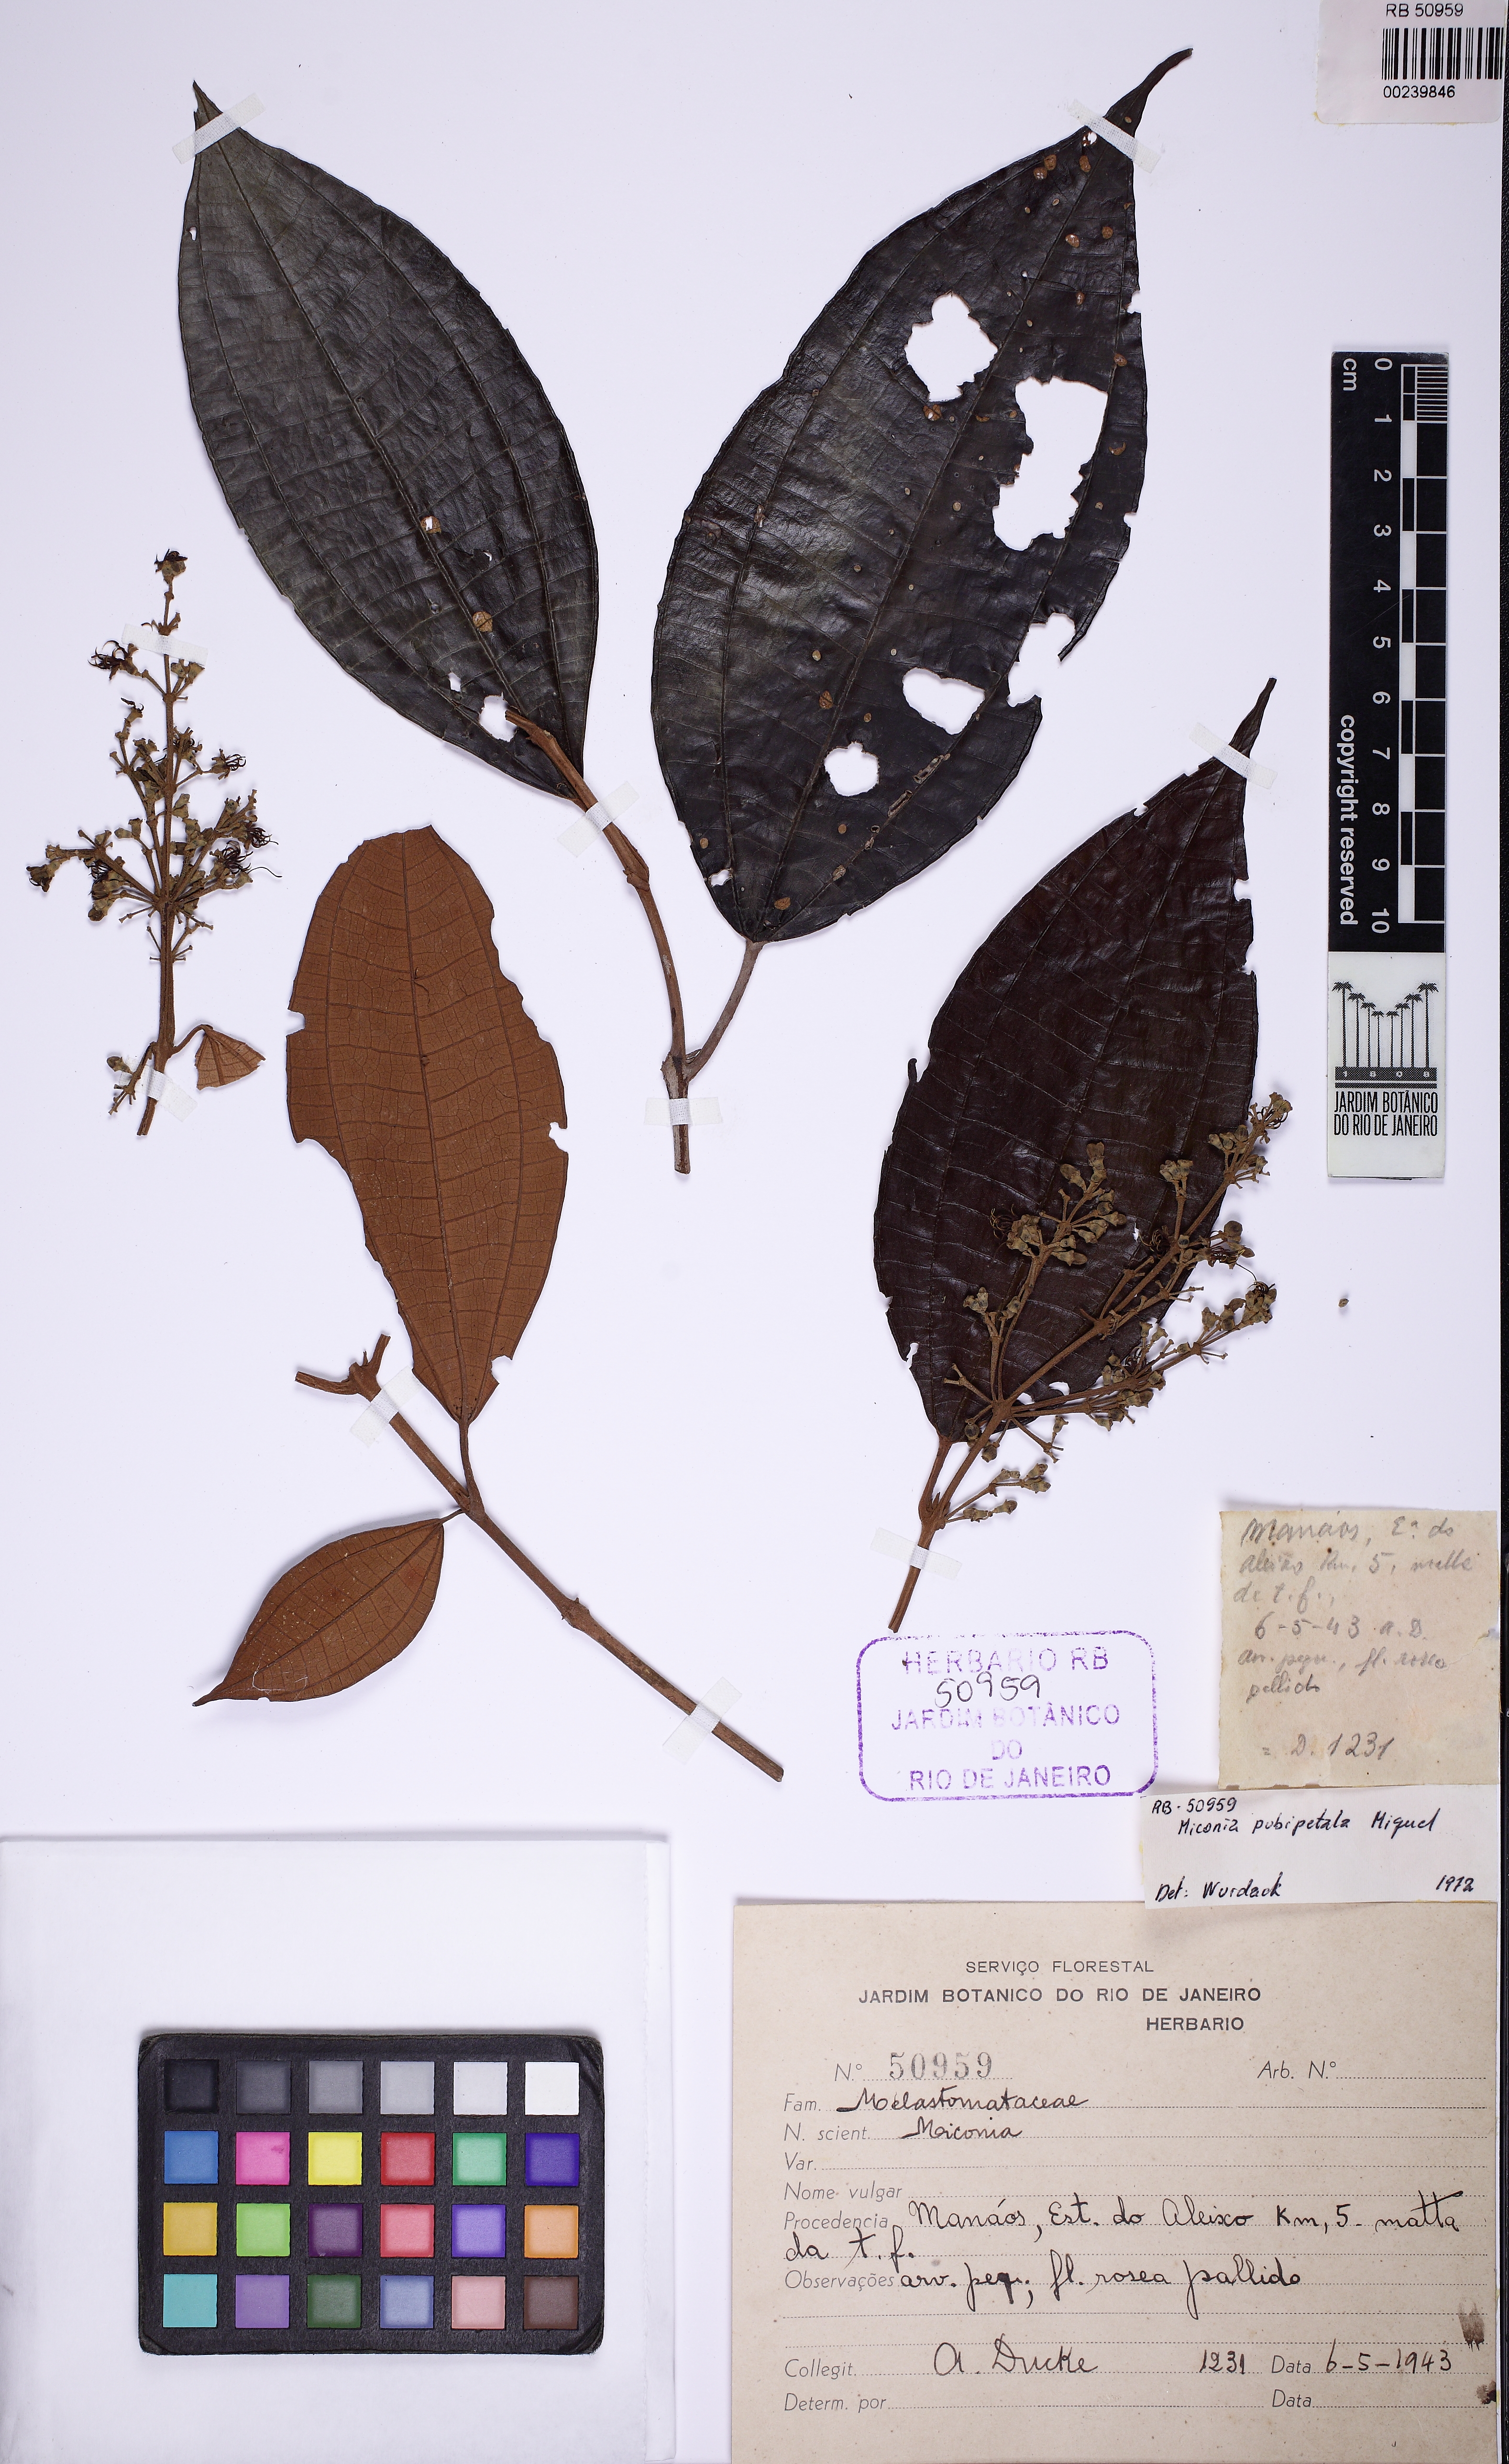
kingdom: Plantae
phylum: Tracheophyta
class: Magnoliopsida
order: Myrtales
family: Melastomataceae
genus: Miconia
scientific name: Miconia pubipetala
